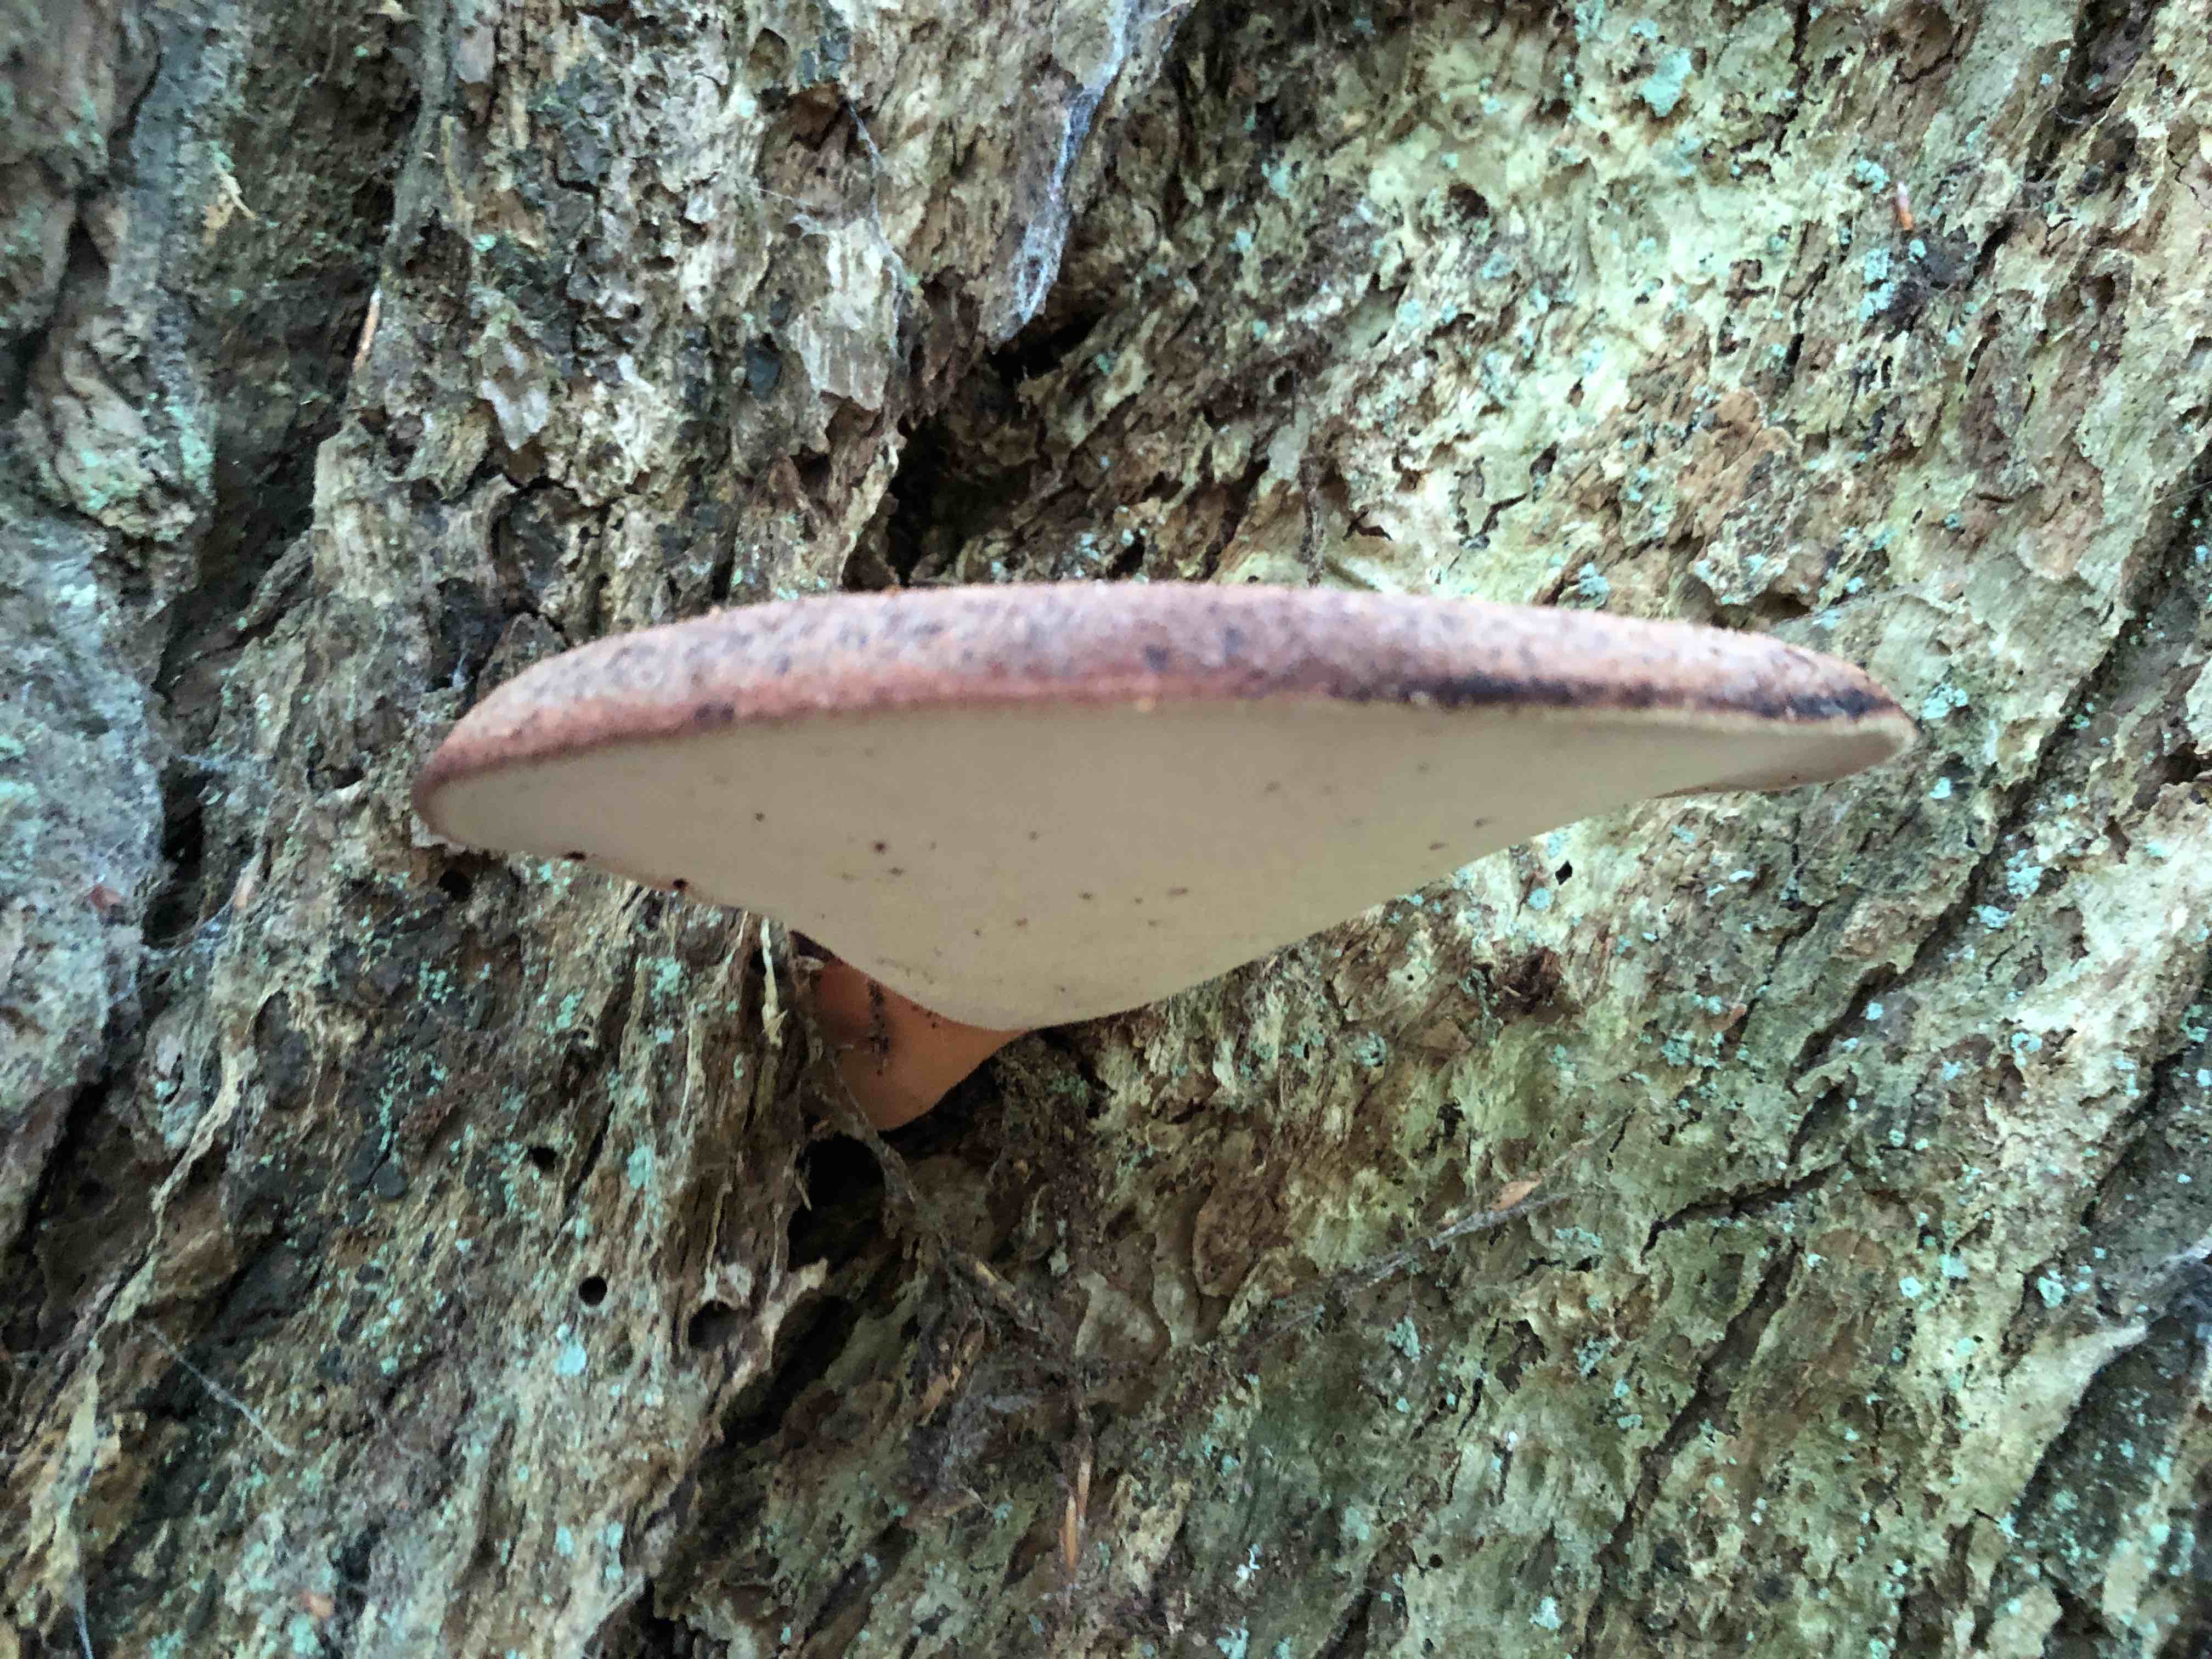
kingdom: Fungi
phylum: Basidiomycota
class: Agaricomycetes
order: Agaricales
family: Fistulinaceae
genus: Fistulina
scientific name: Fistulina hepatica
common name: oksetunge
